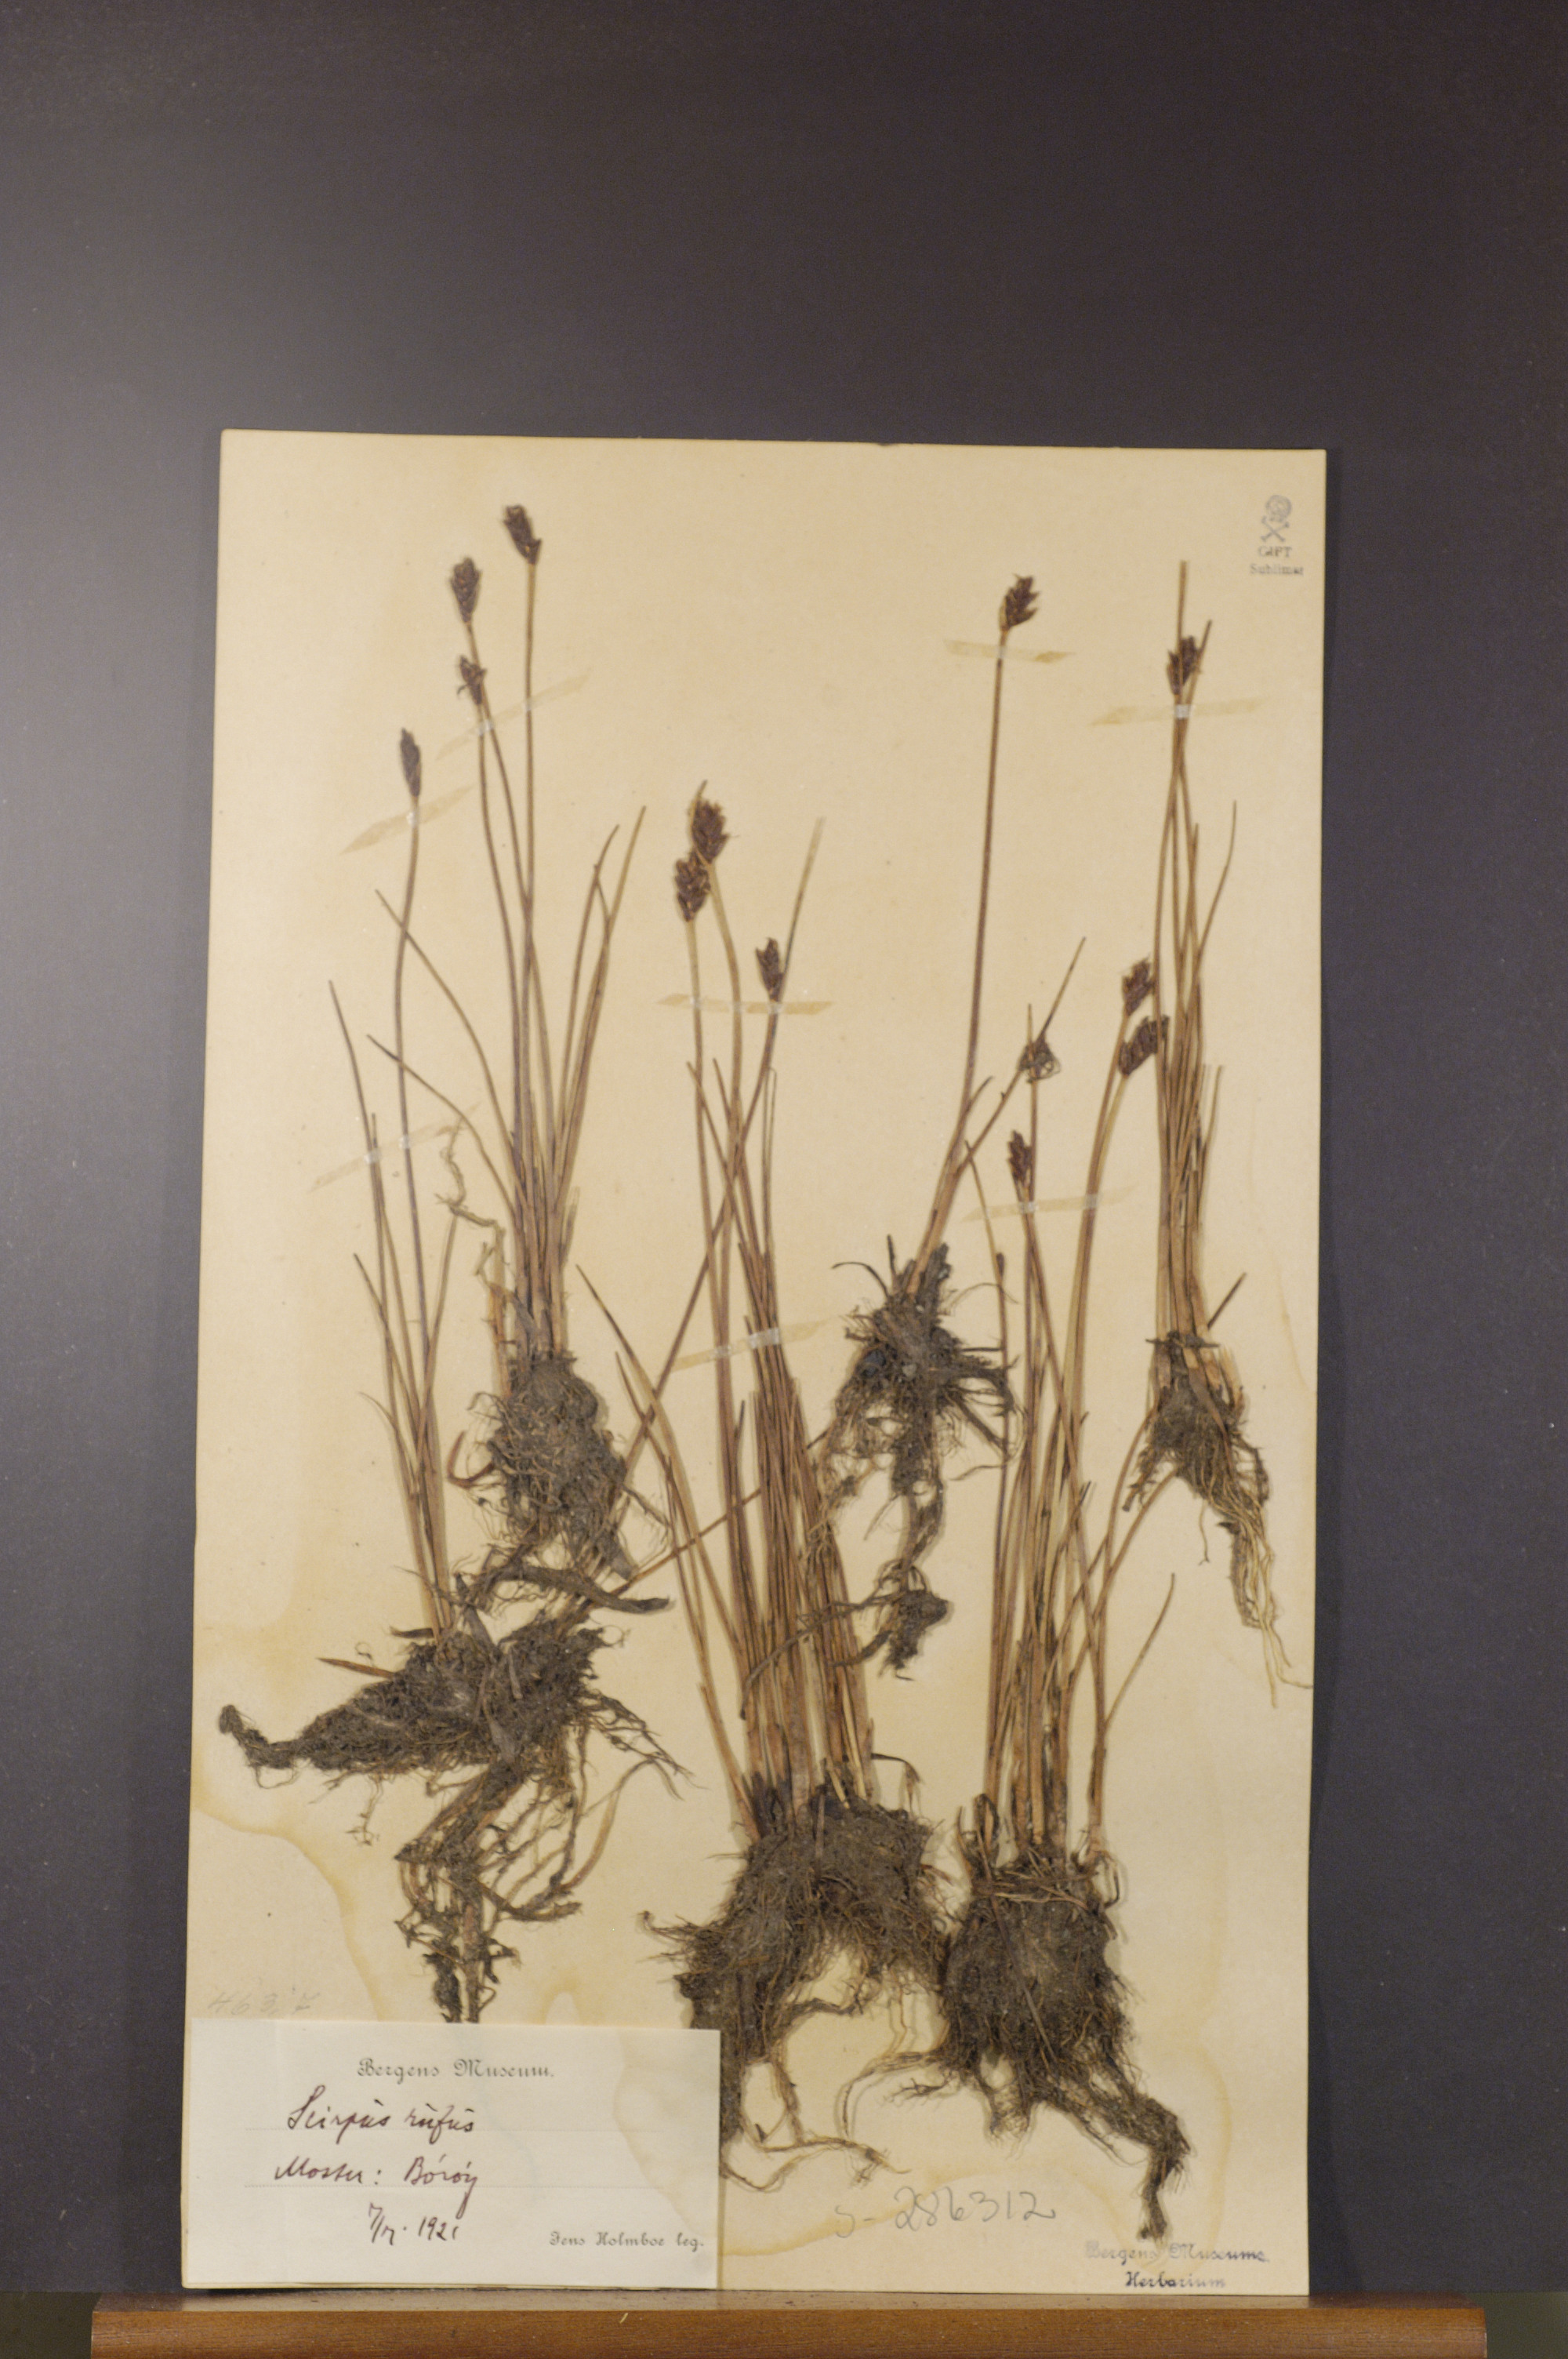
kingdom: Plantae
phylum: Tracheophyta
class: Liliopsida
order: Poales
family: Cyperaceae
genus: Blysmus
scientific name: Blysmus rufus
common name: Saltmarsh flat-sedge
